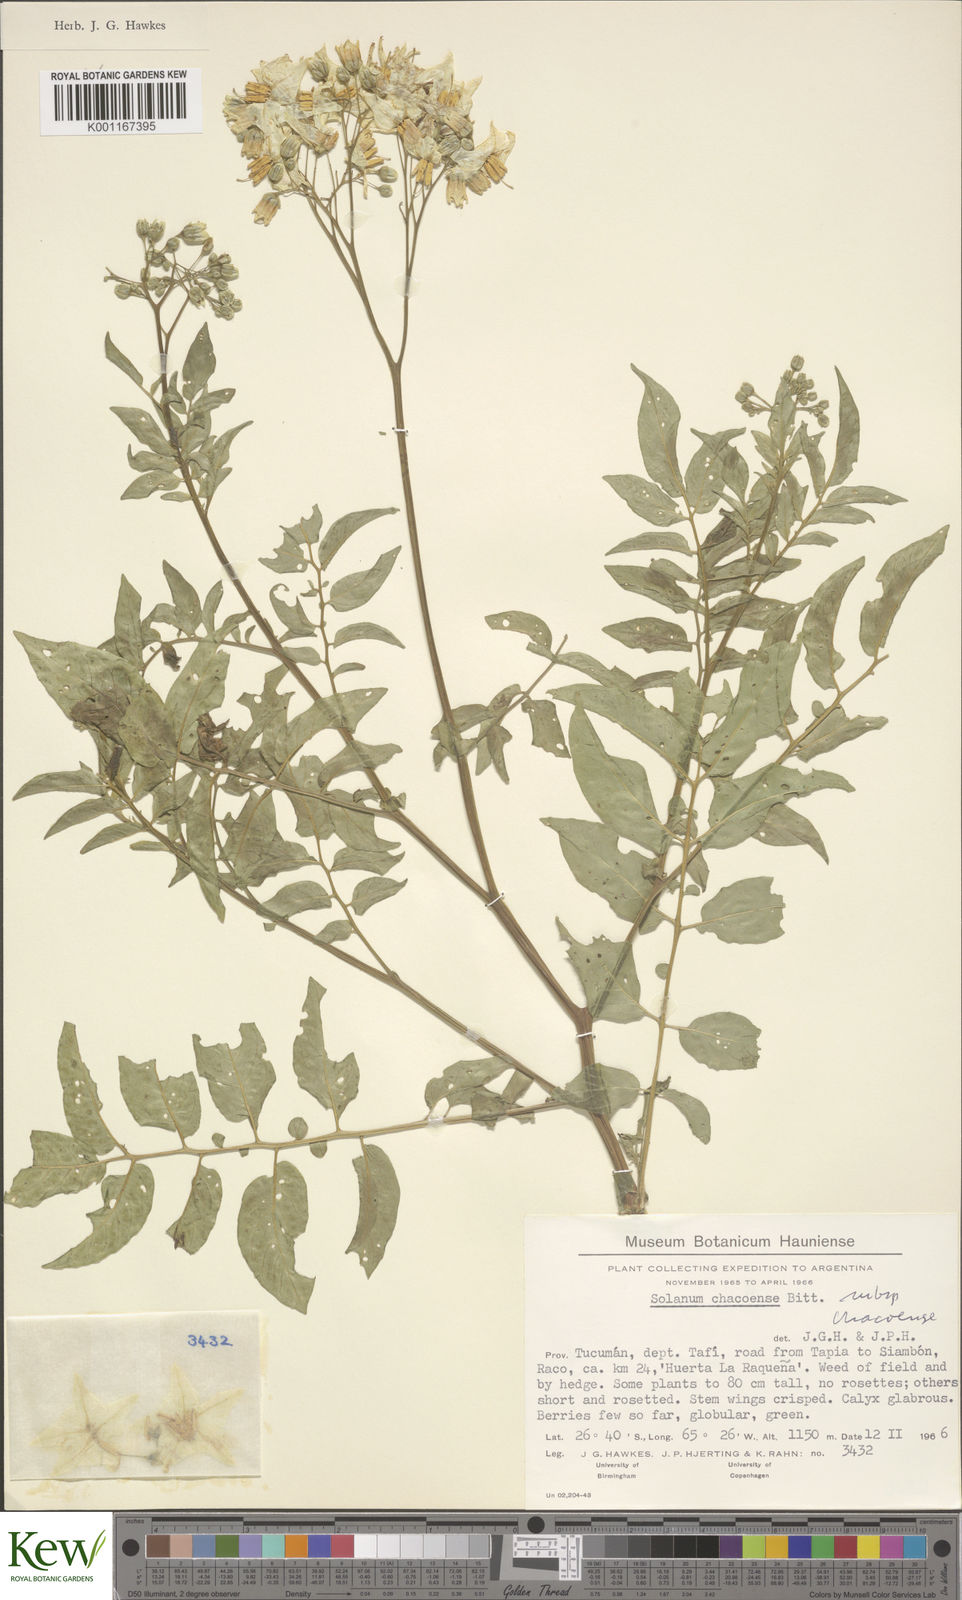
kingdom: Plantae
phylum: Tracheophyta
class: Magnoliopsida
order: Solanales
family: Solanaceae
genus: Solanum
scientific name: Solanum chacoense
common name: Chaco potato
